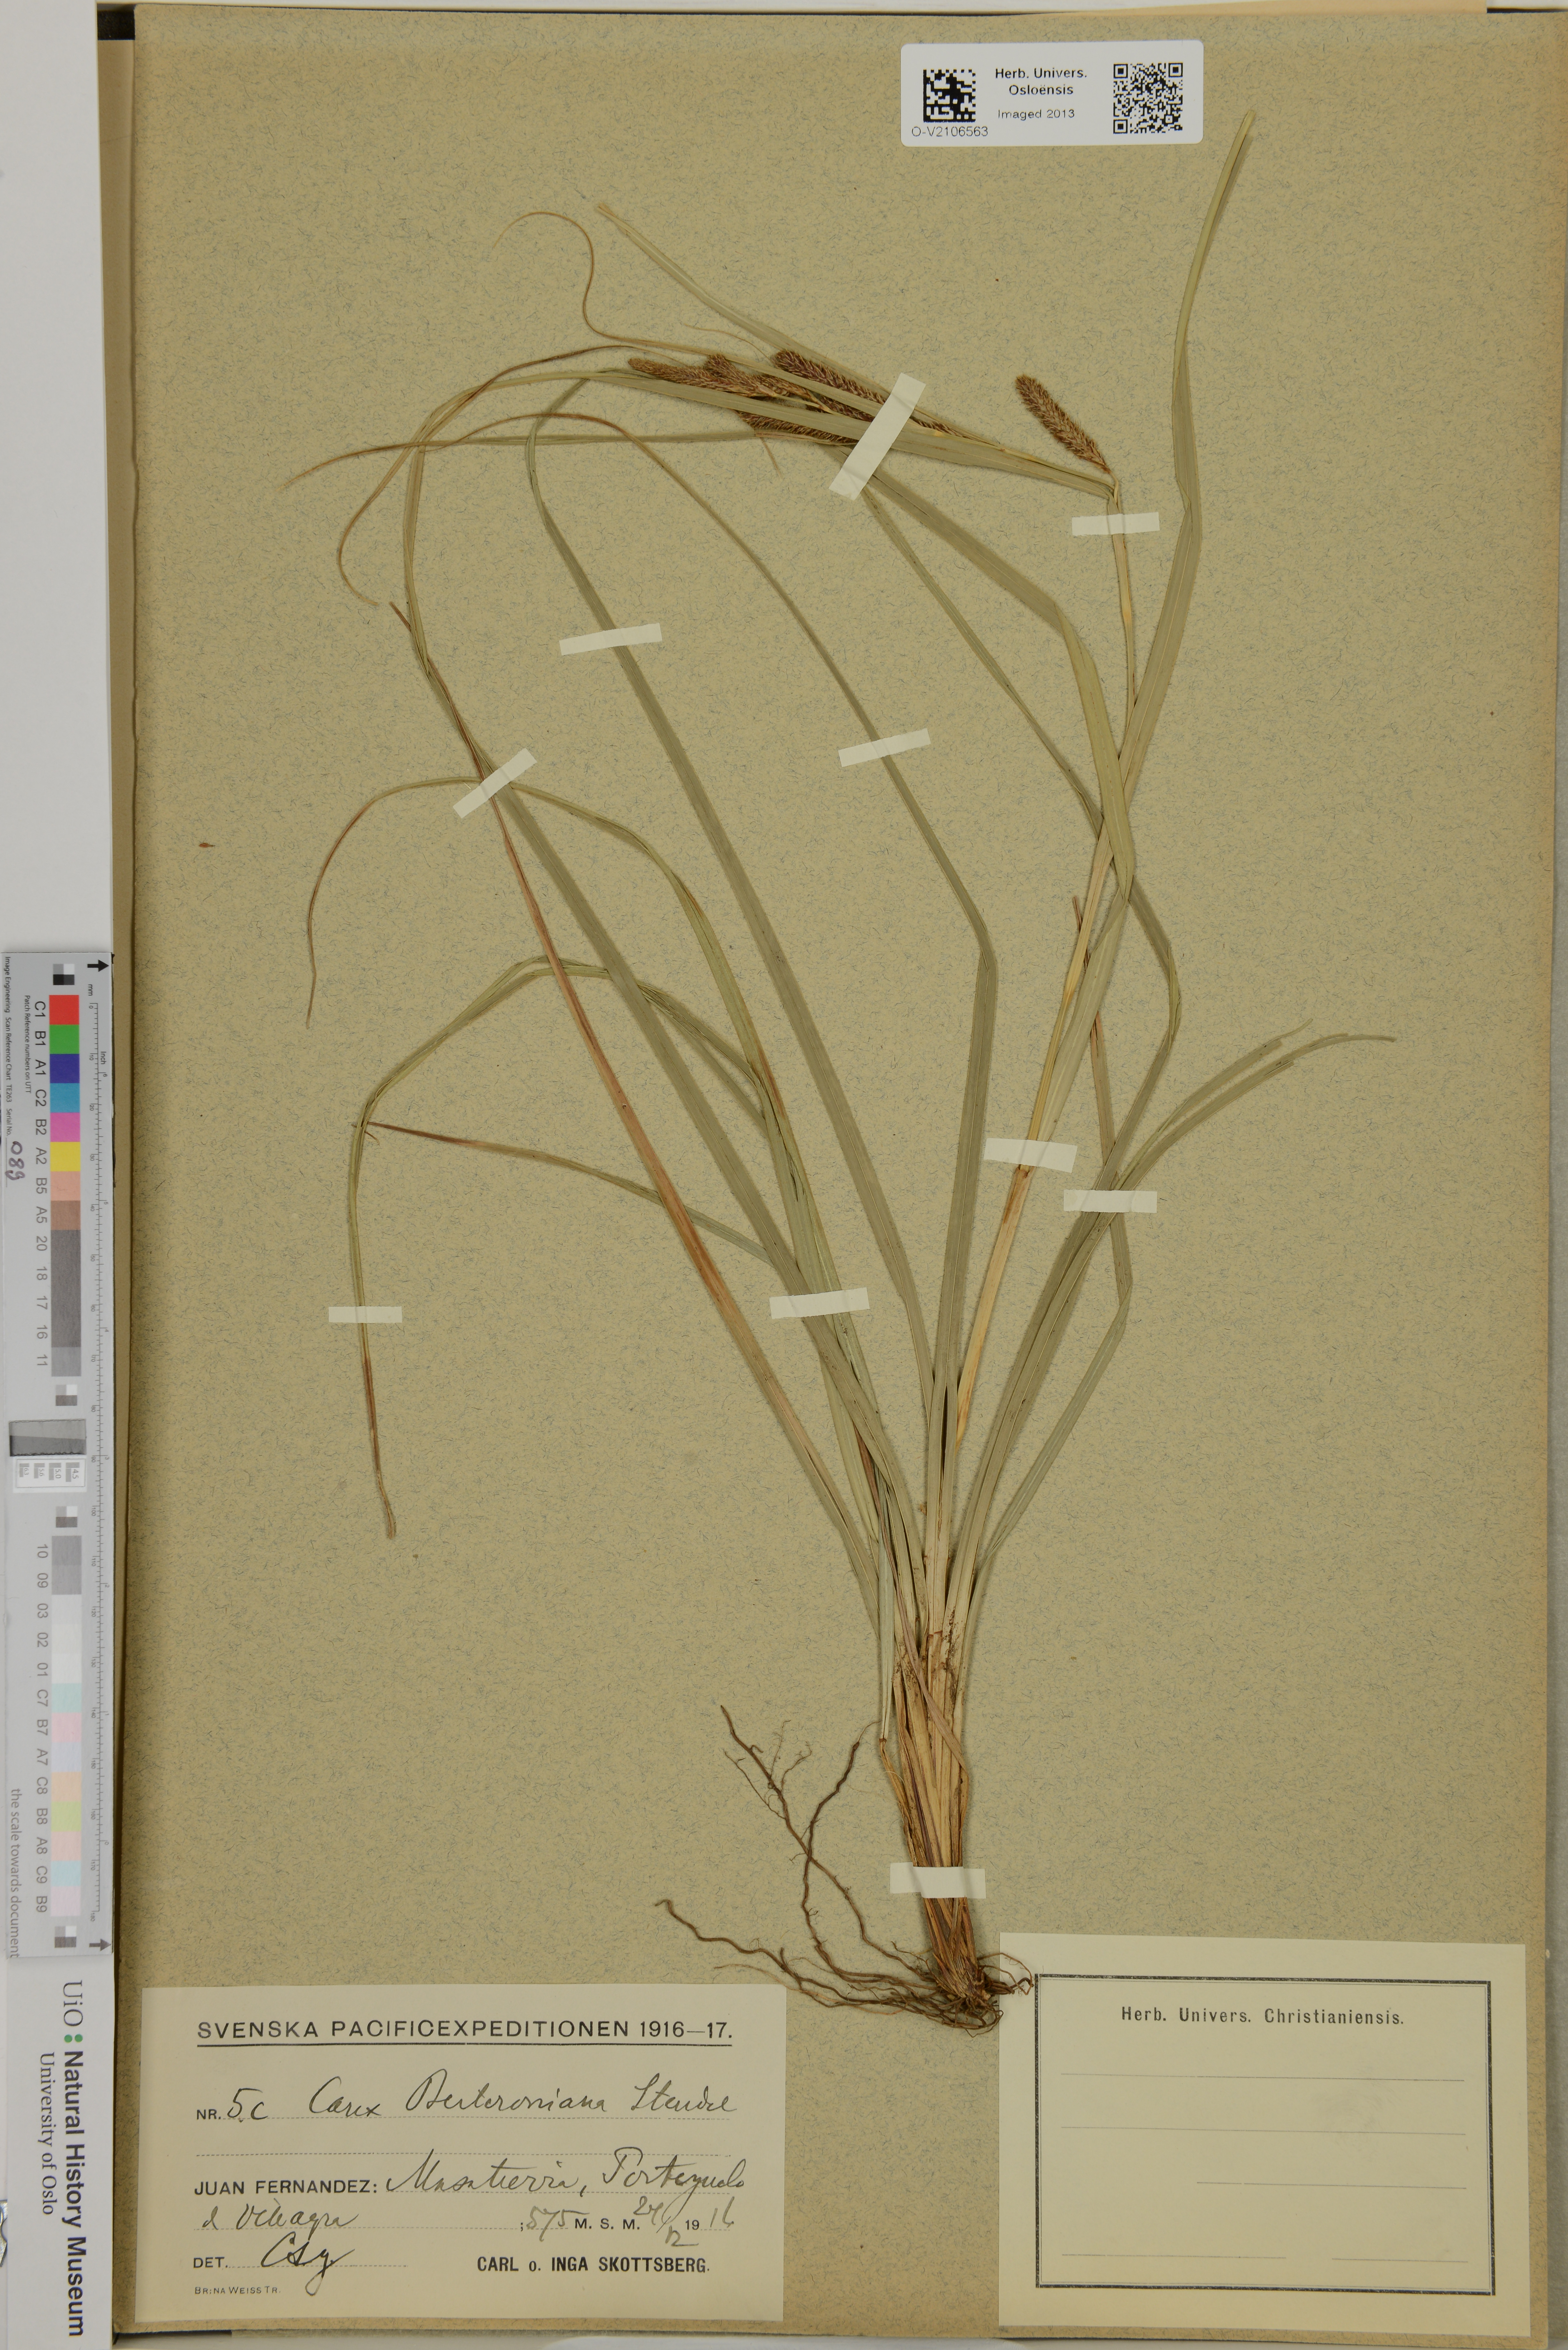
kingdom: Plantae
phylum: Tracheophyta
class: Liliopsida
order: Poales
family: Cyperaceae
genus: Carex
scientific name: Carex berteroniana
